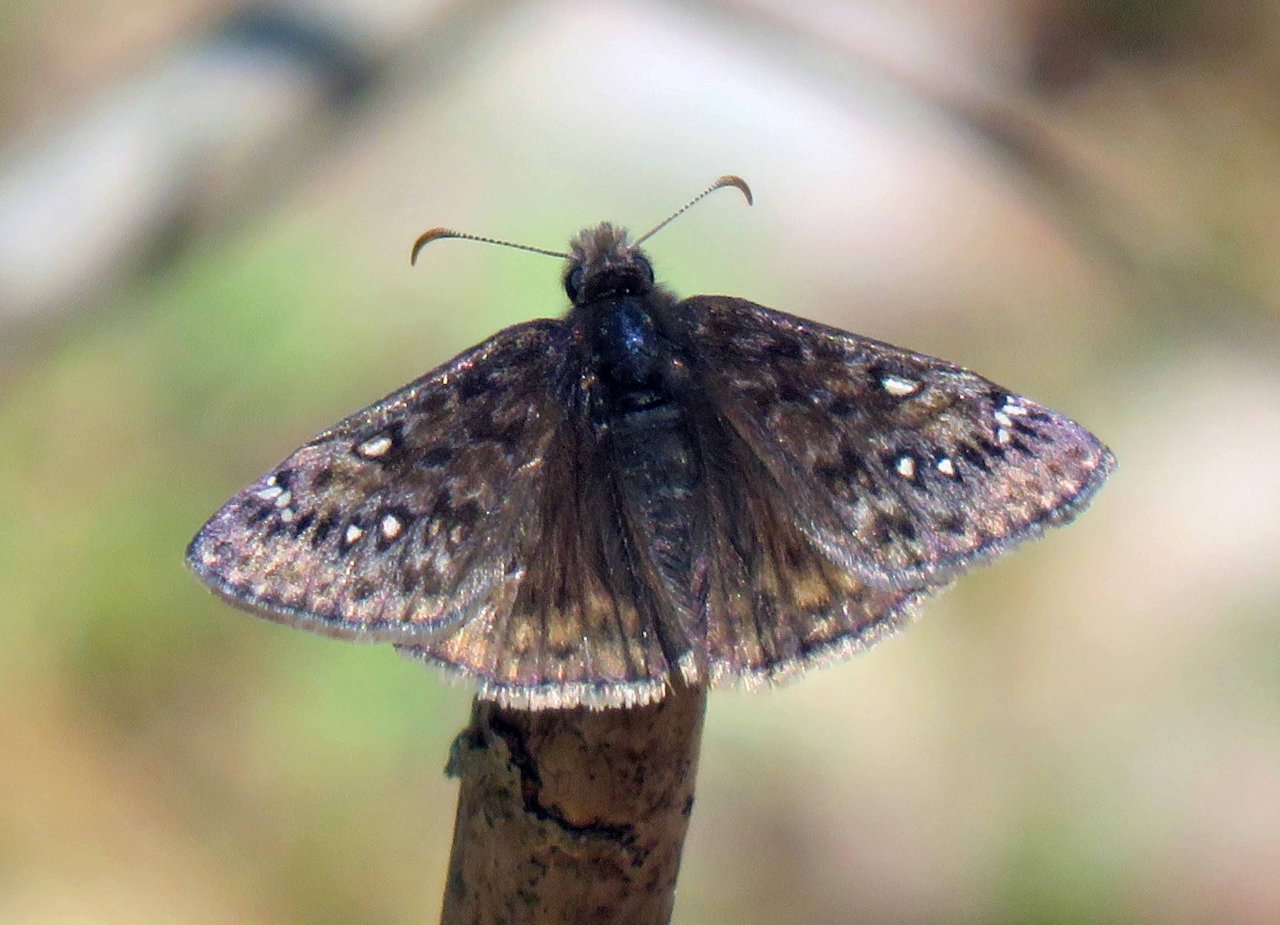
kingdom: Animalia
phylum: Arthropoda
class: Insecta
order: Lepidoptera
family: Hesperiidae
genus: Erynnis
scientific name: Erynnis
